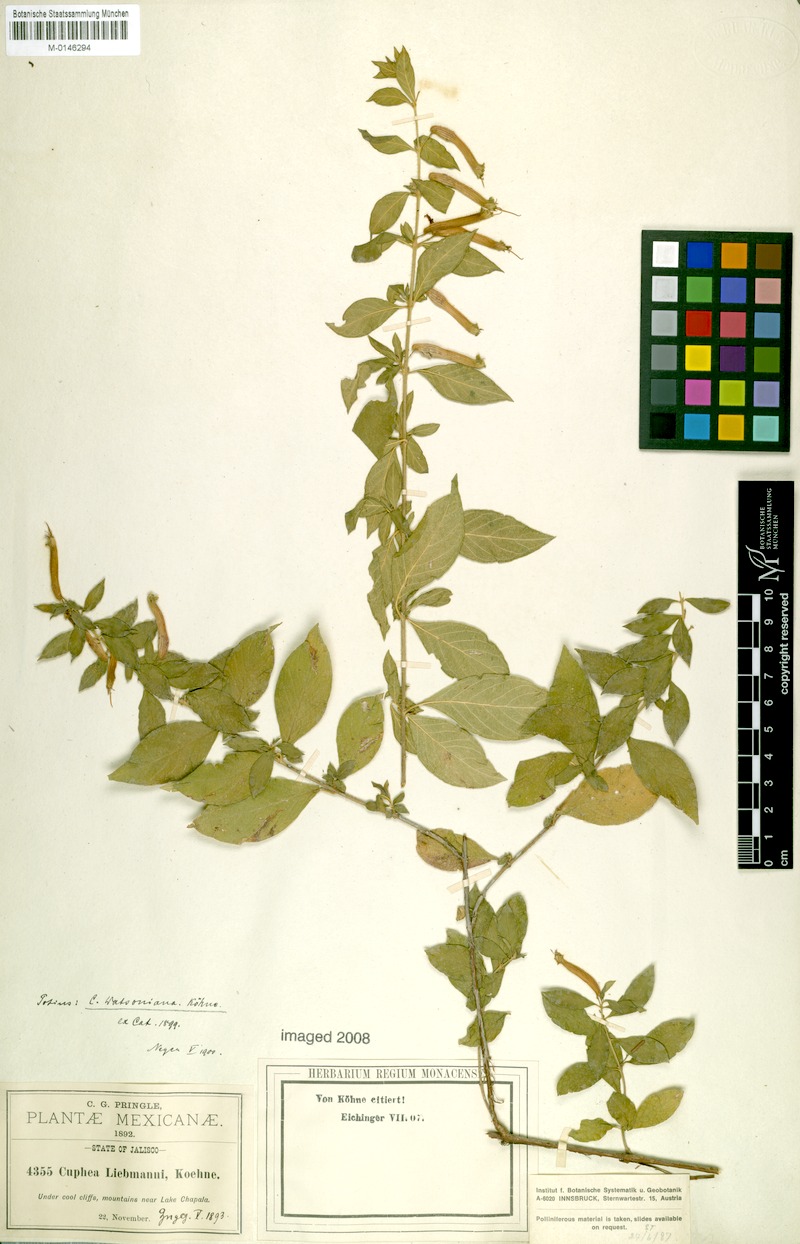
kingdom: Plantae
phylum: Tracheophyta
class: Magnoliopsida
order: Myrtales
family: Lythraceae
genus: Cuphea
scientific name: Cuphea watsoniana
